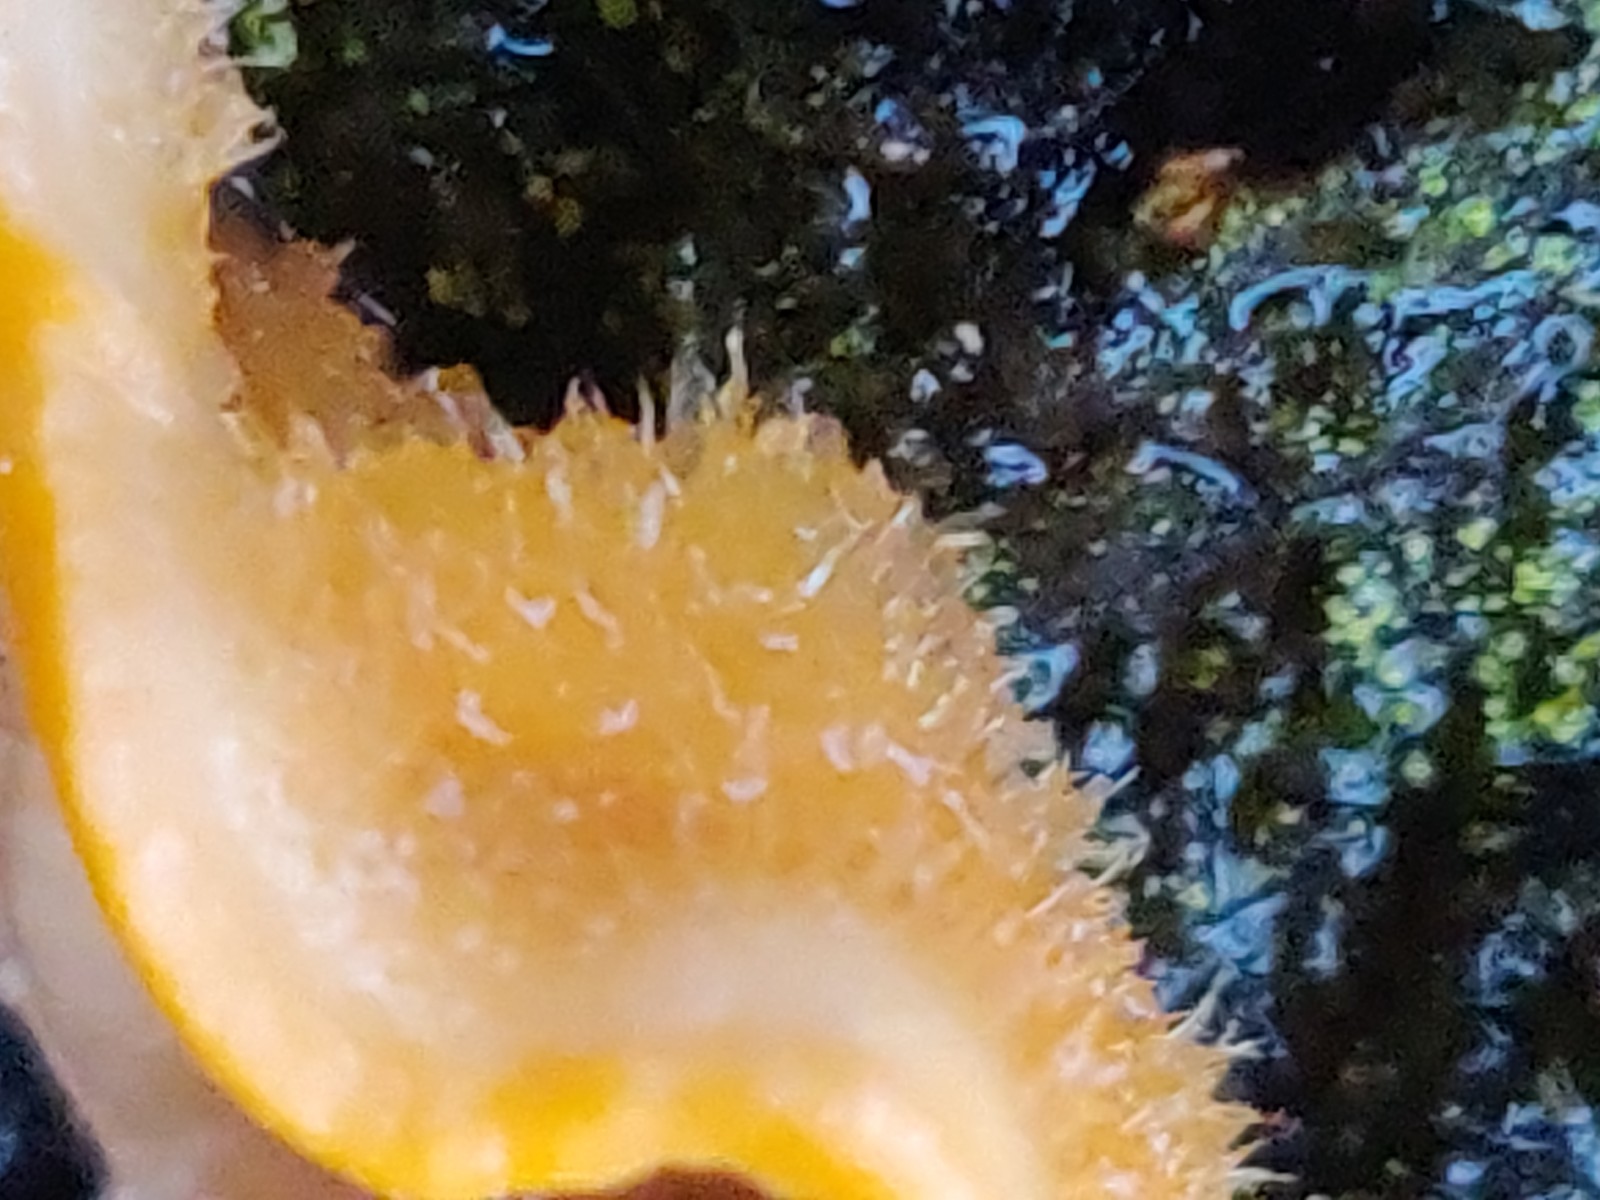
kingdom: Fungi
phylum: Basidiomycota
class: Agaricomycetes
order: Russulales
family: Stereaceae
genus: Stereum
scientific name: Stereum hirsutum
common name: håret lædersvamp
